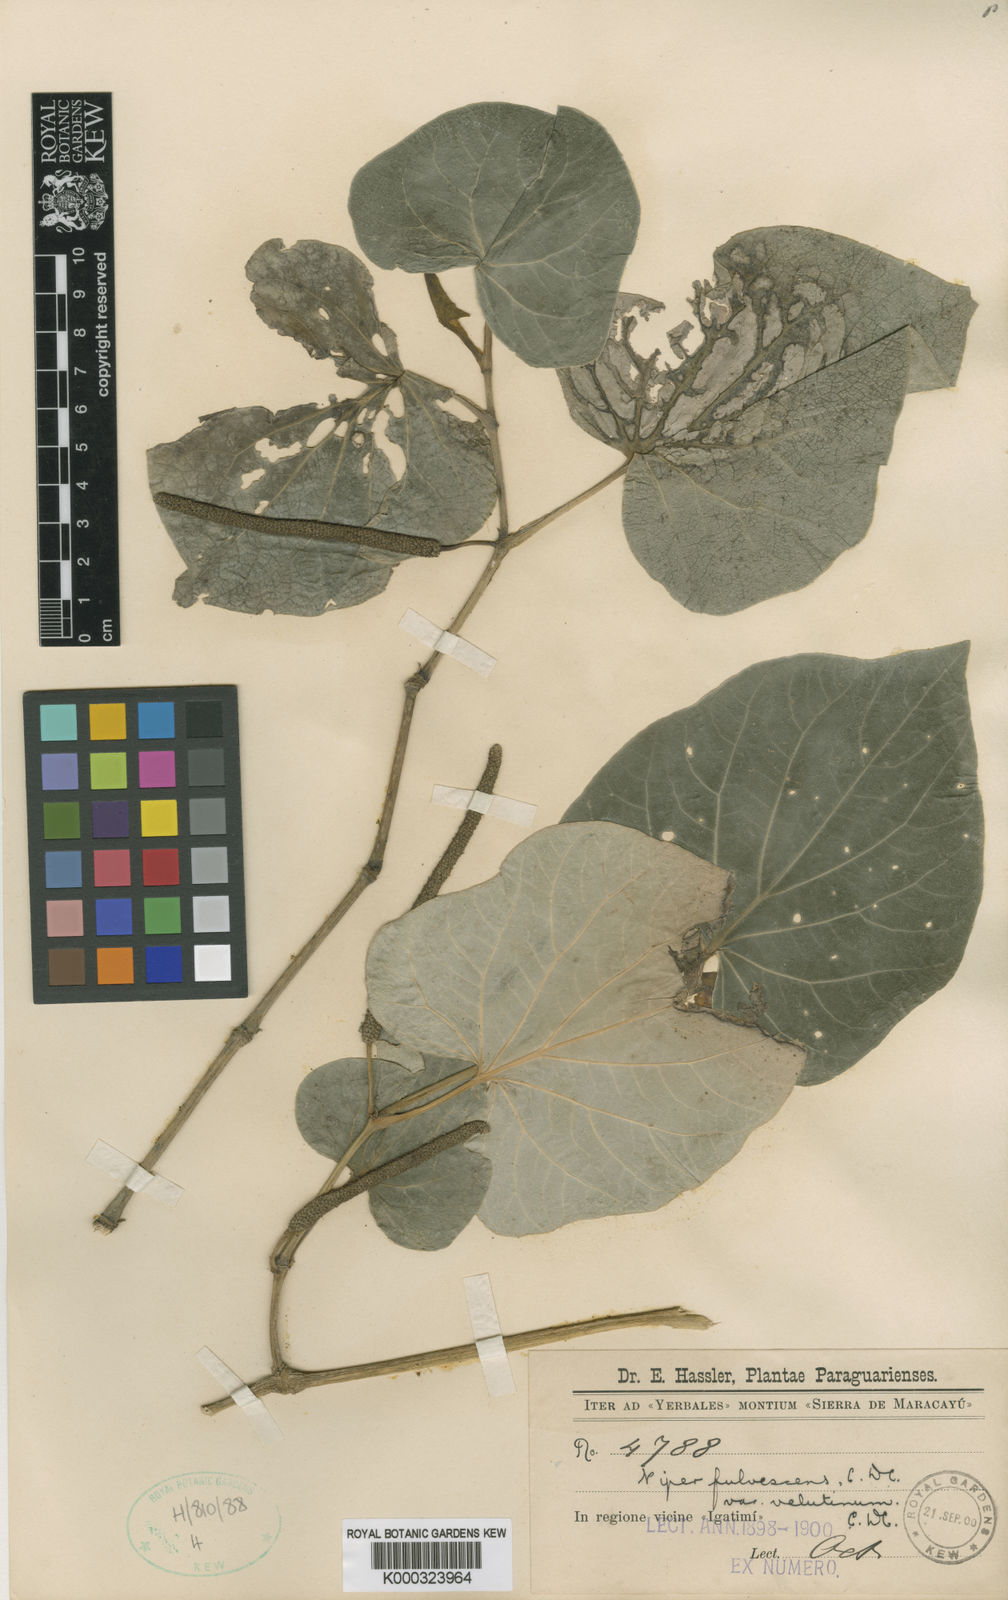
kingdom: Plantae
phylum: Tracheophyta
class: Magnoliopsida
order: Piperales
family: Piperaceae
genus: Piper
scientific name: Piper regnellii
